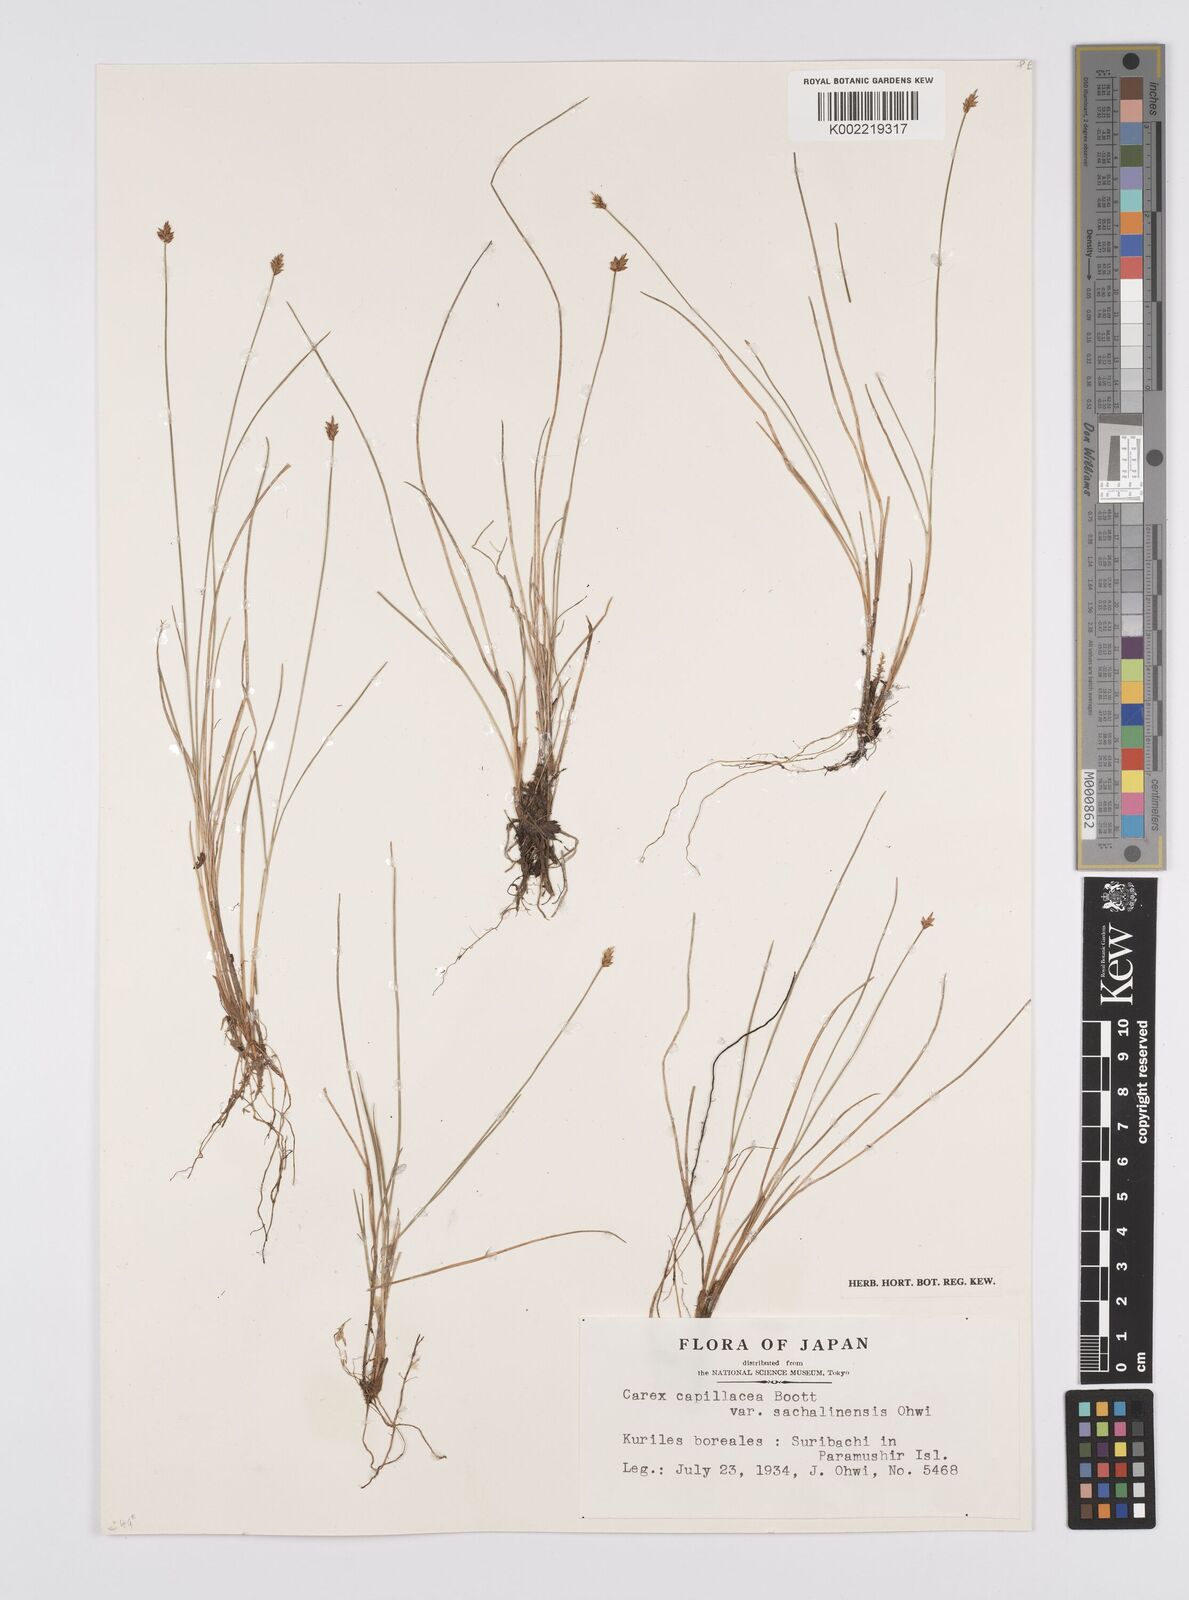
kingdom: Plantae
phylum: Tracheophyta
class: Liliopsida
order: Poales
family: Cyperaceae
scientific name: Cyperaceae
